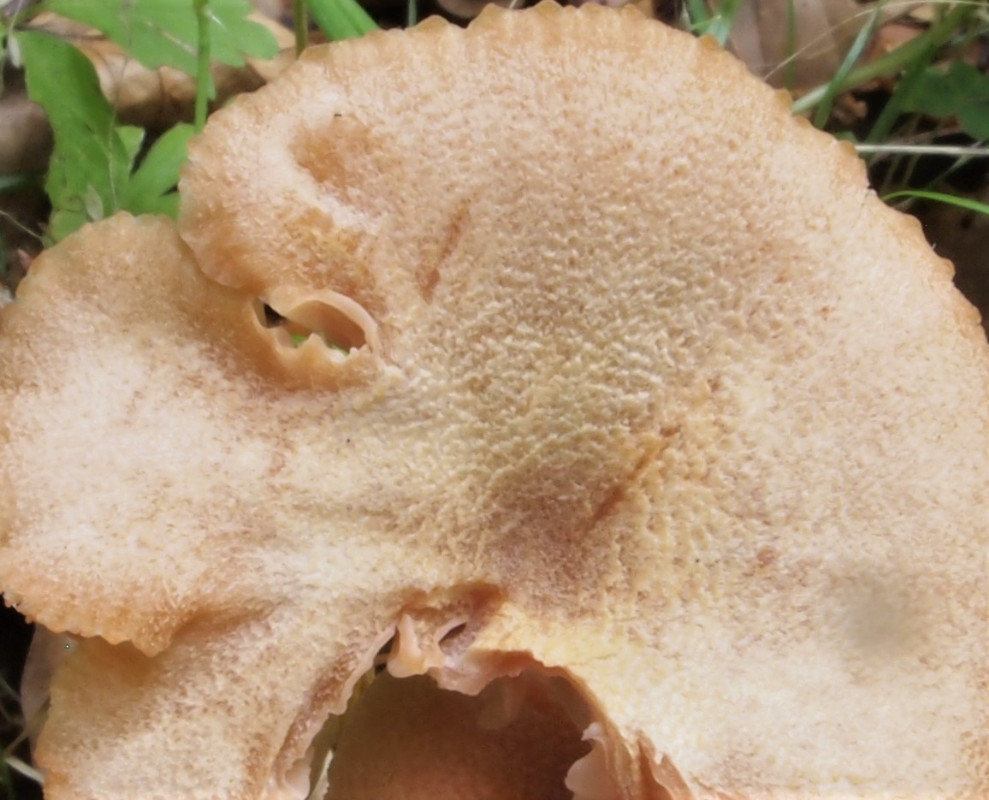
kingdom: Fungi
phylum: Basidiomycota
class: Agaricomycetes
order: Agaricales
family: Hydnangiaceae
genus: Laccaria
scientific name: Laccaria proxima
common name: stor ametysthat
